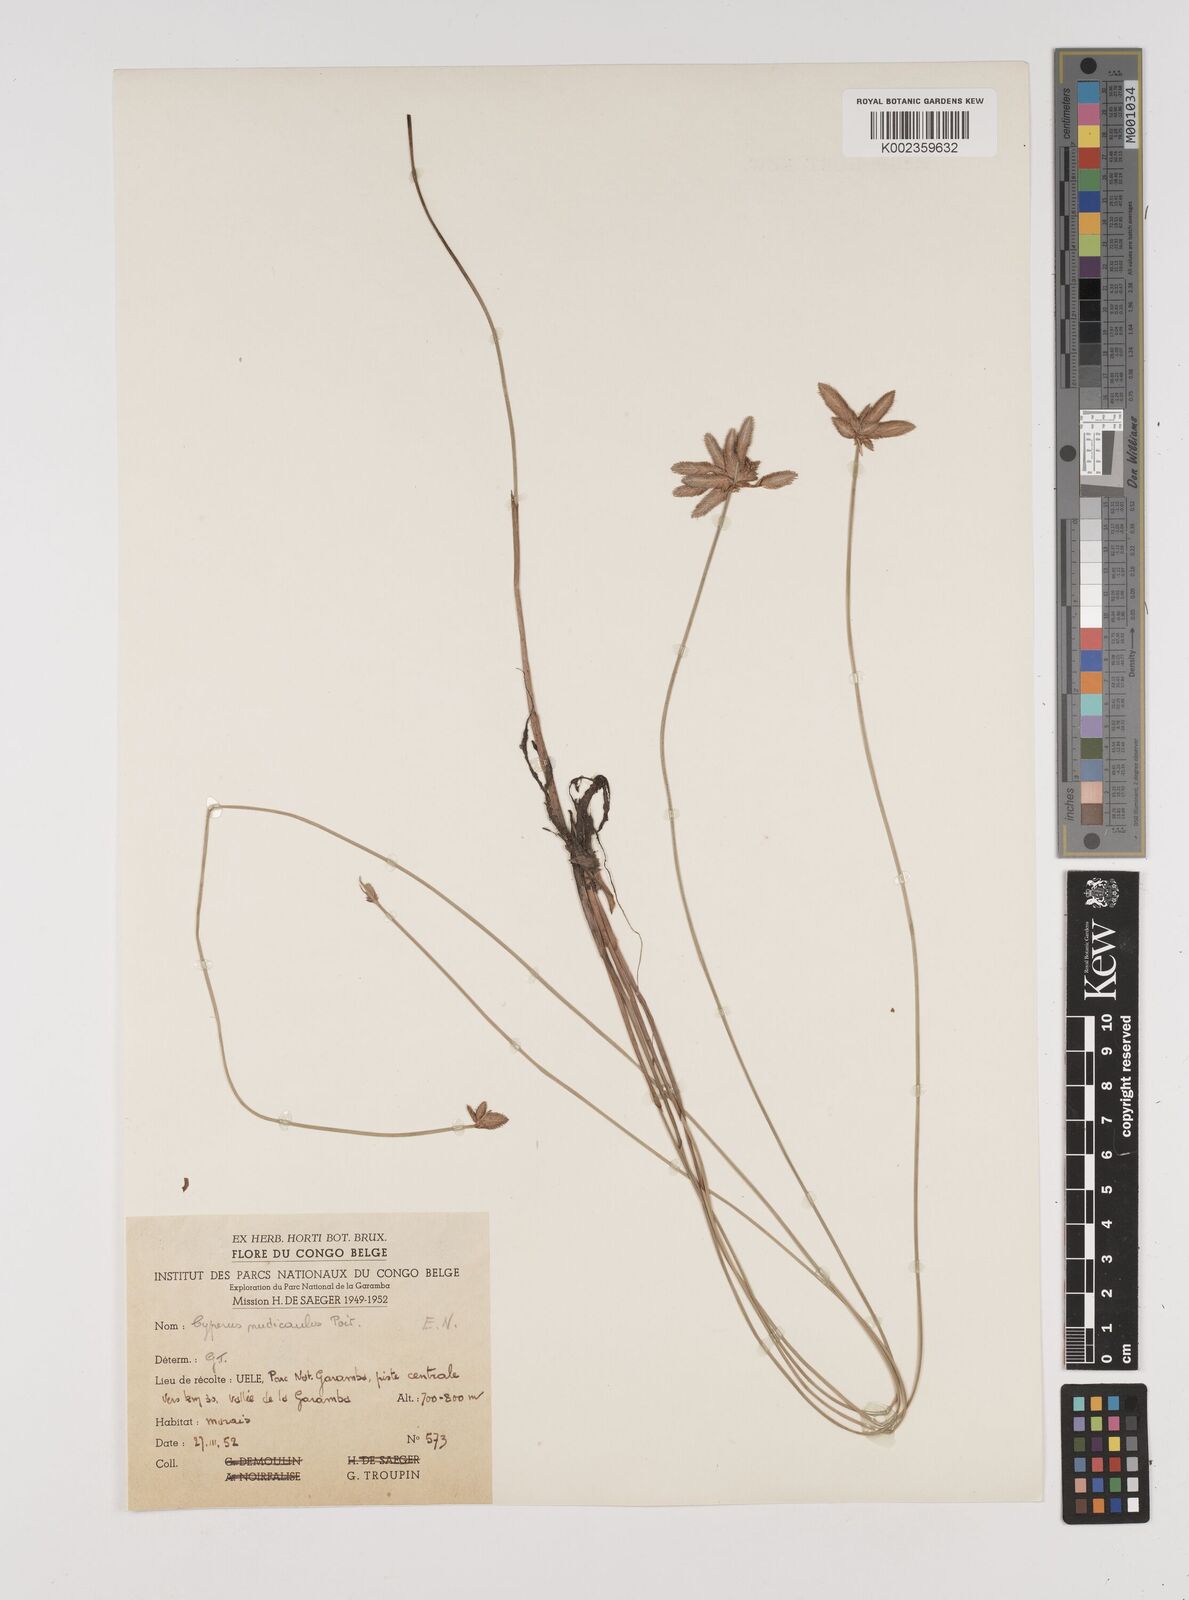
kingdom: Plantae
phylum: Tracheophyta
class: Liliopsida
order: Poales
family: Cyperaceae
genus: Cyperus
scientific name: Cyperus pectinatus
